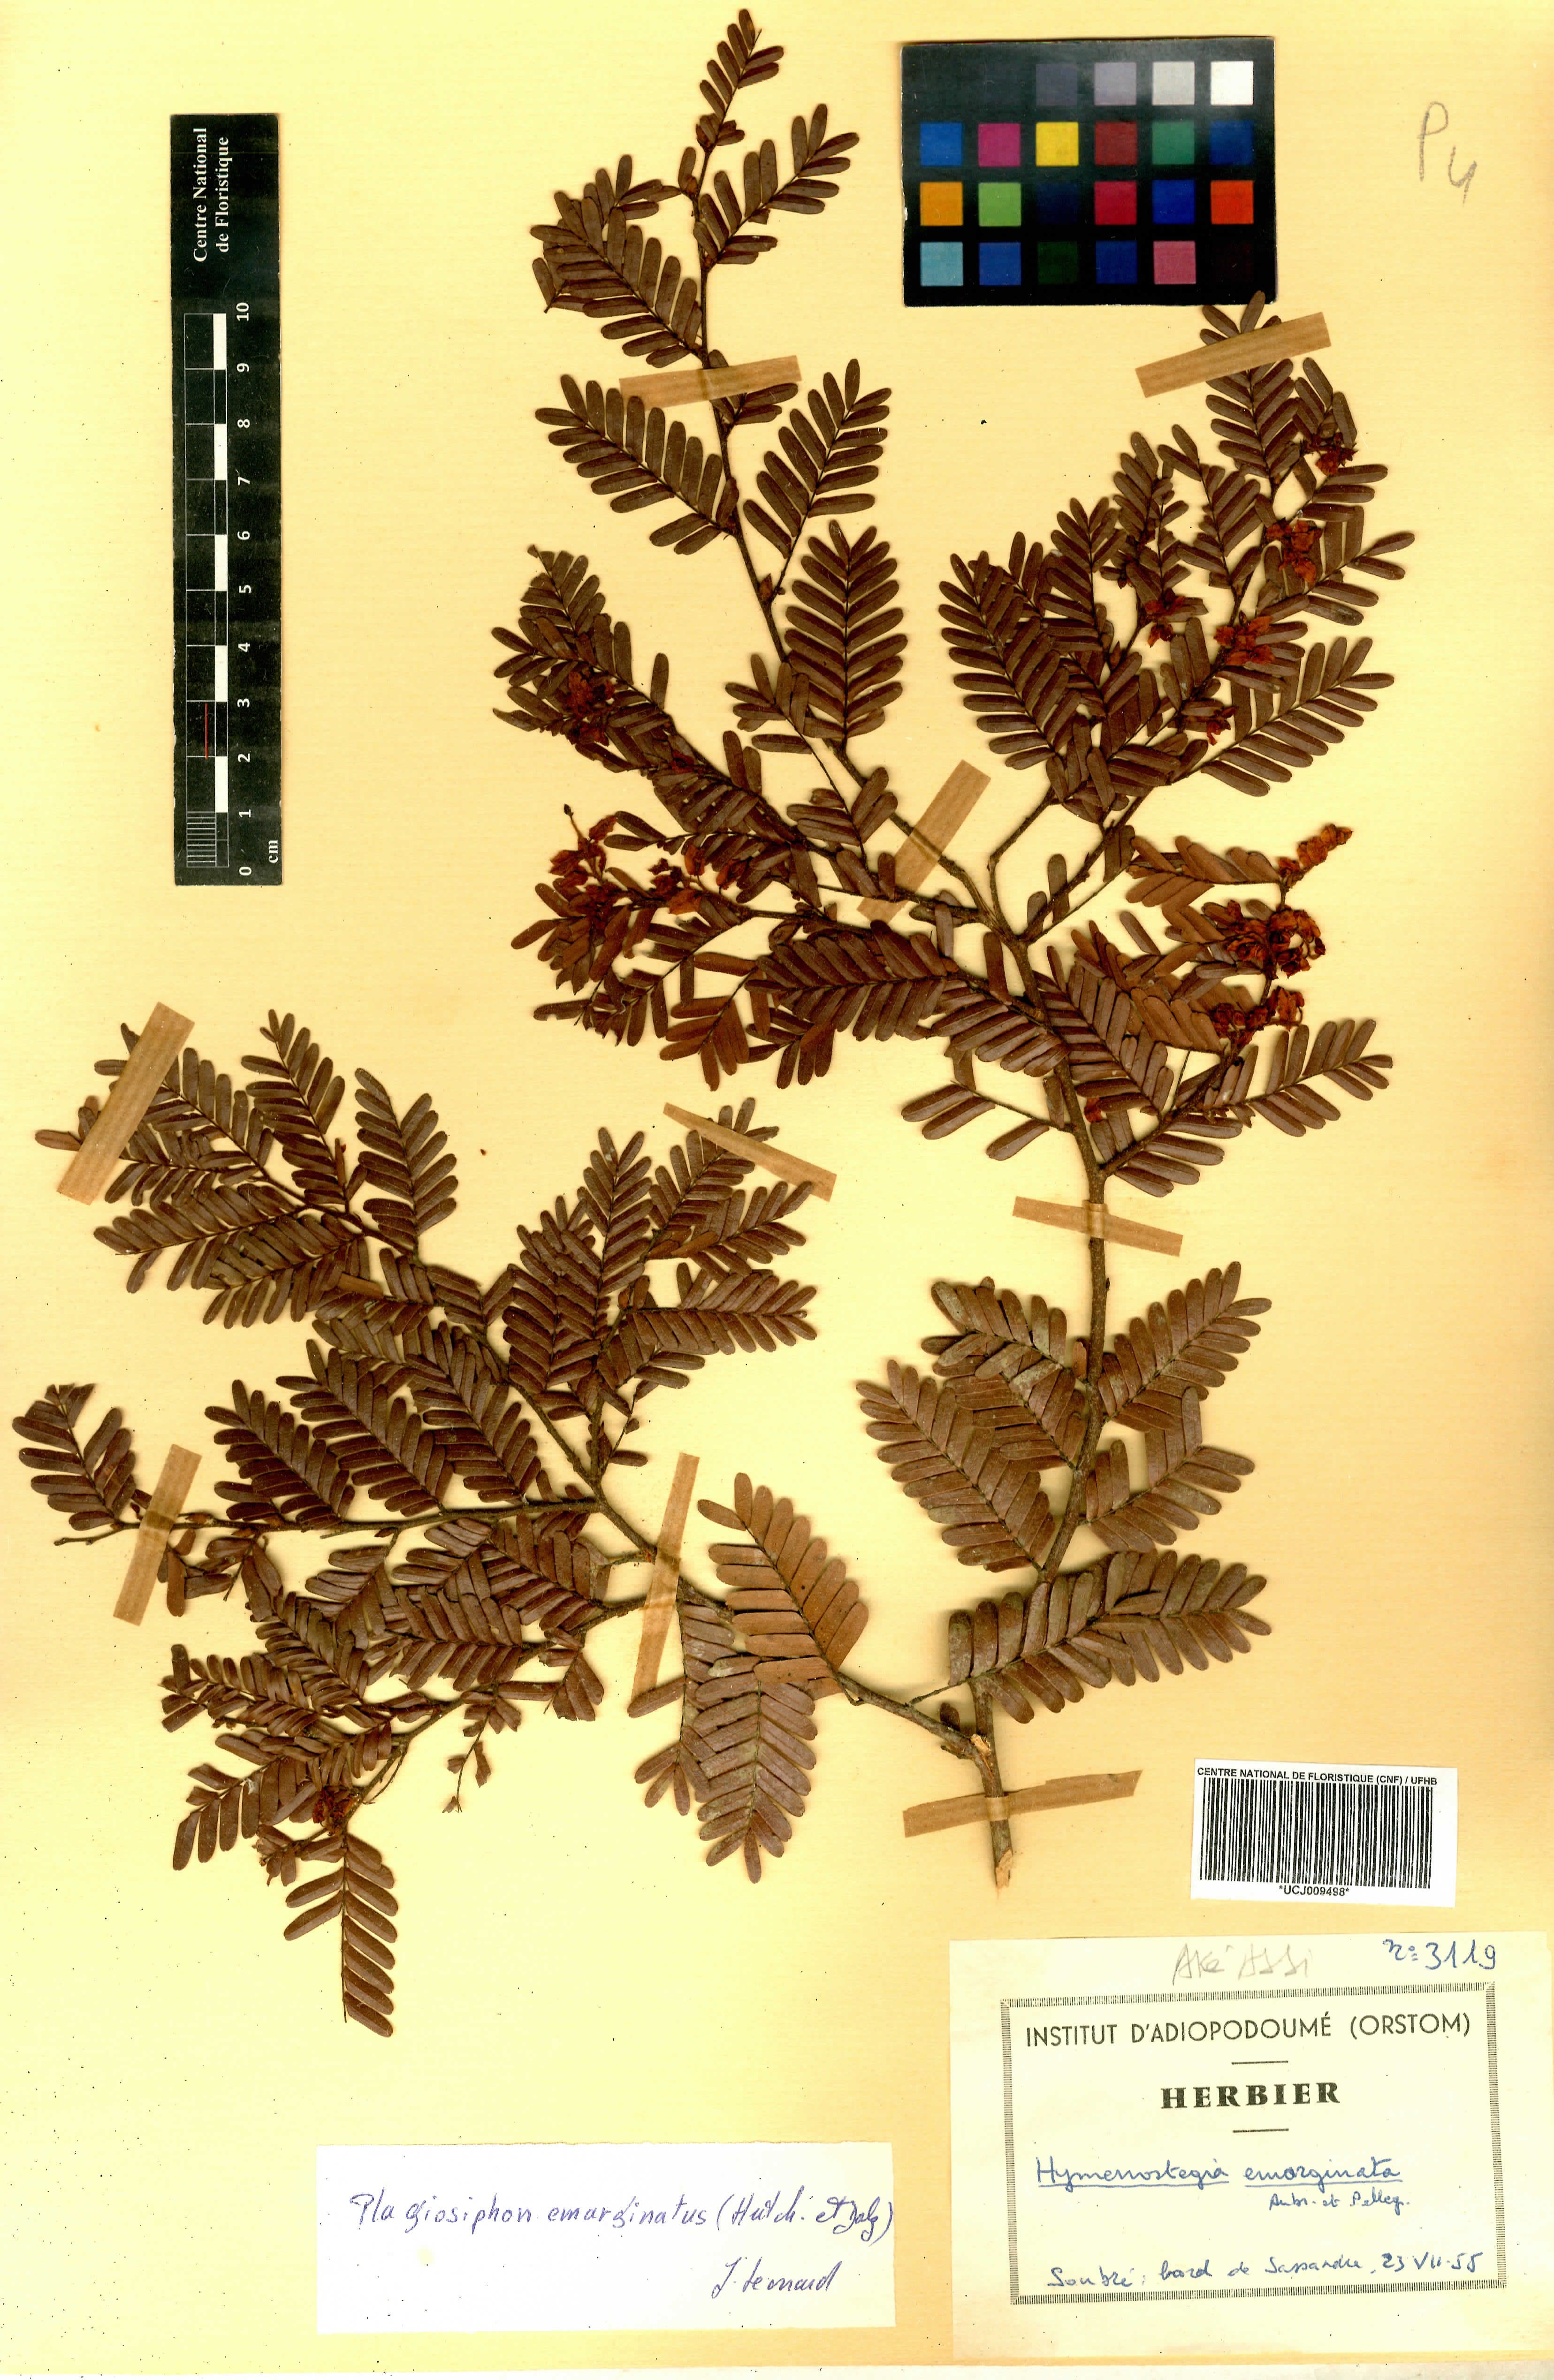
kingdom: Plantae
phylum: Tracheophyta
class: Magnoliopsida
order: Fabales
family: Fabaceae
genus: Plagiosiphon
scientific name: Plagiosiphon emarginatus
